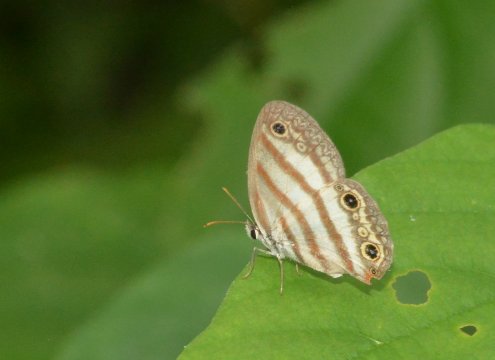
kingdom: Animalia
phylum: Arthropoda
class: Insecta
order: Lepidoptera
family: Nymphalidae
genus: Euptychia
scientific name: Euptychia mollina
